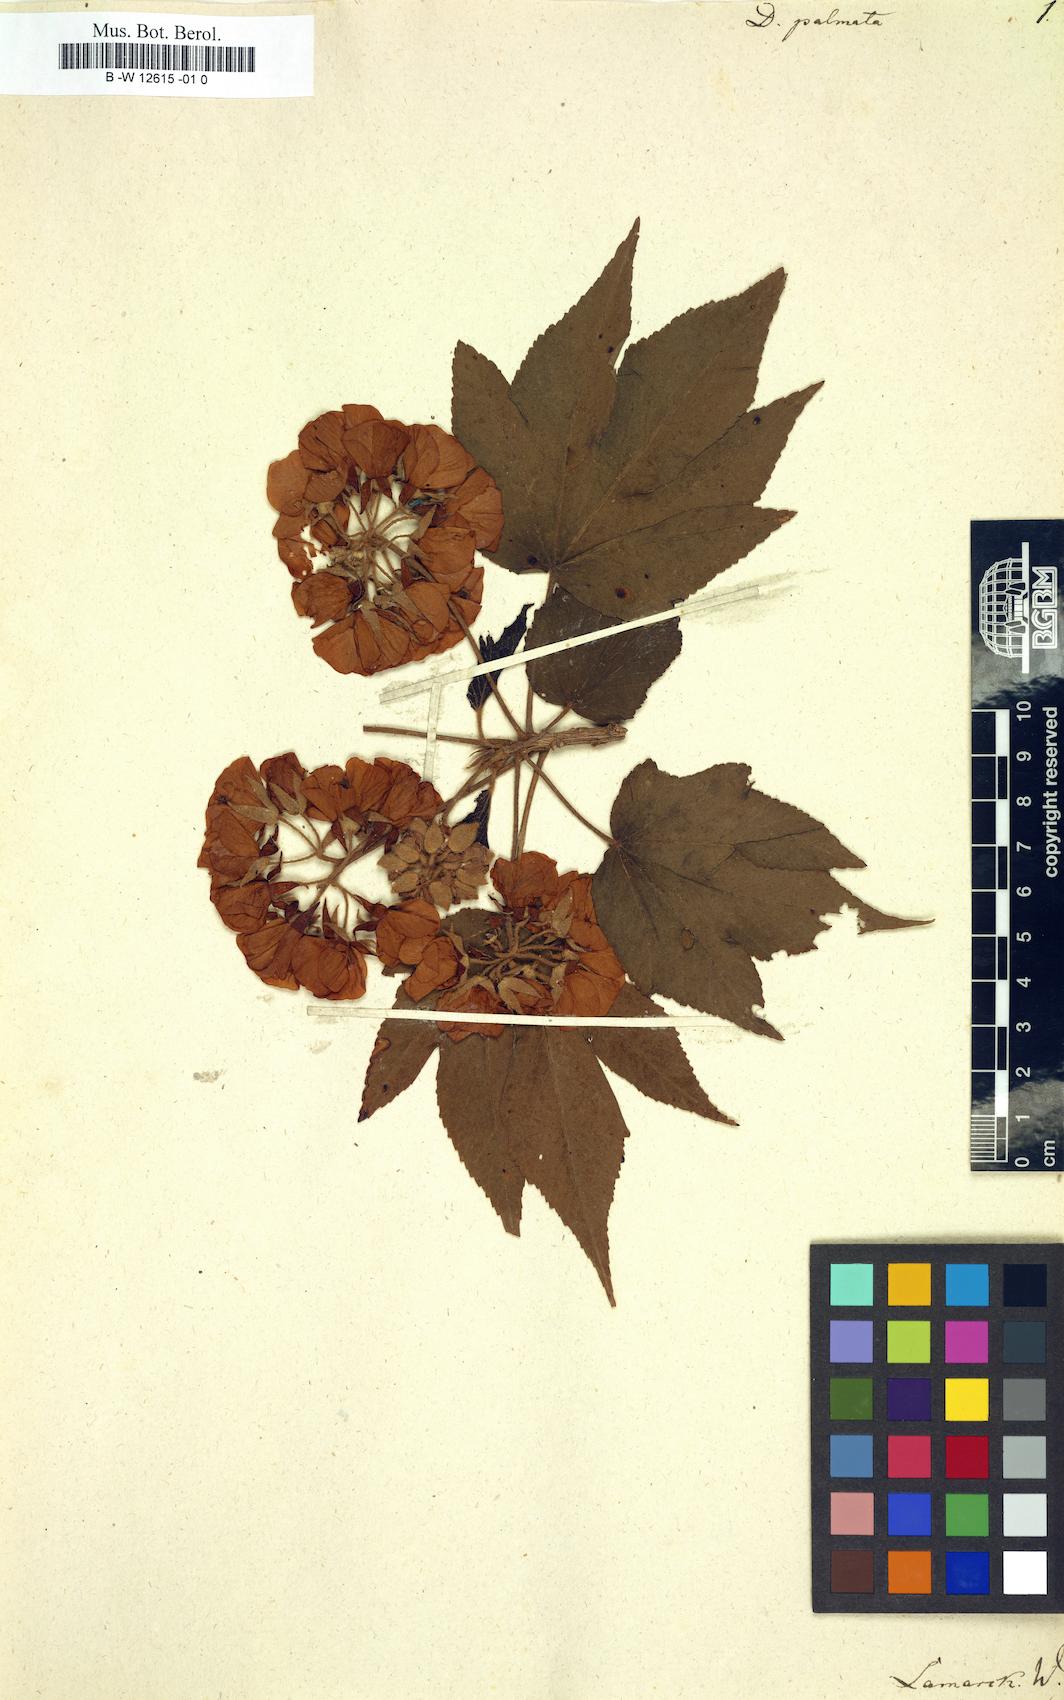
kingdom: Plantae
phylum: Tracheophyta
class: Magnoliopsida
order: Malvales
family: Malvaceae
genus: Dombeya
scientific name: Dombeya acutangula
